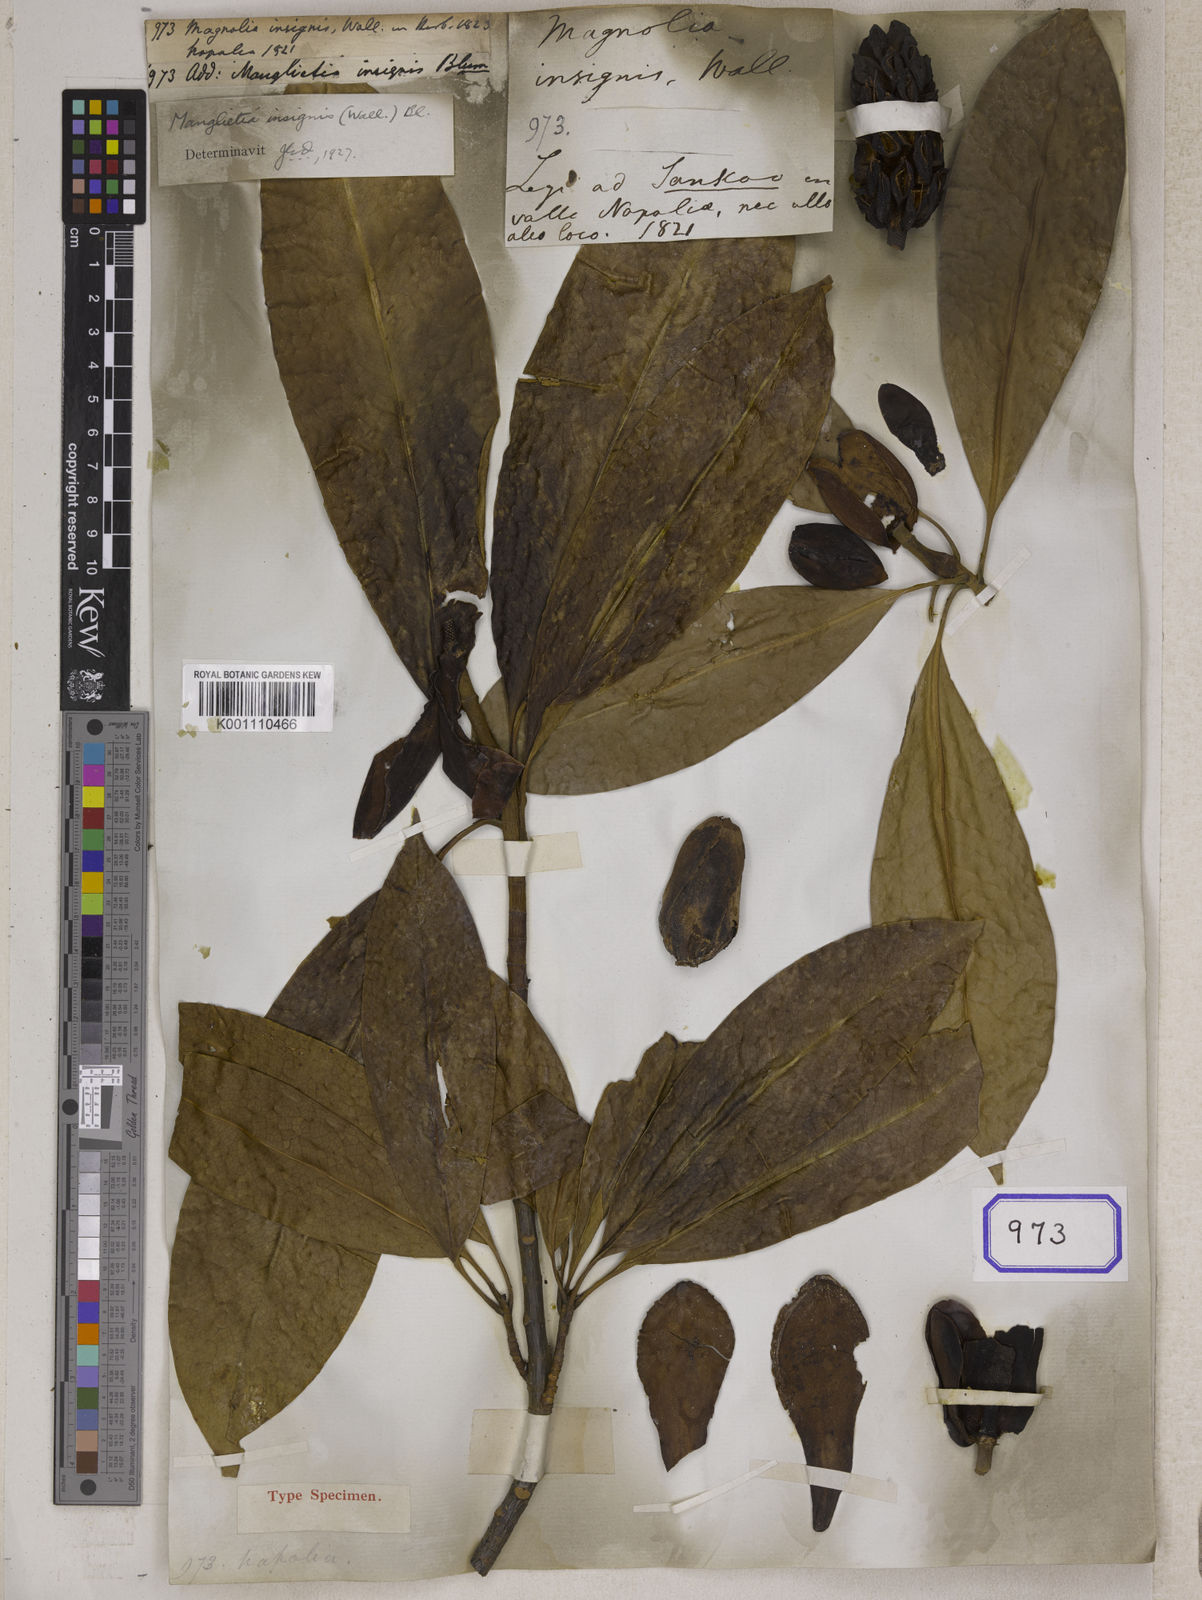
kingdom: Plantae
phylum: Tracheophyta
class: Magnoliopsida
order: Magnoliales
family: Magnoliaceae
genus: Magnolia
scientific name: Magnolia insignis
